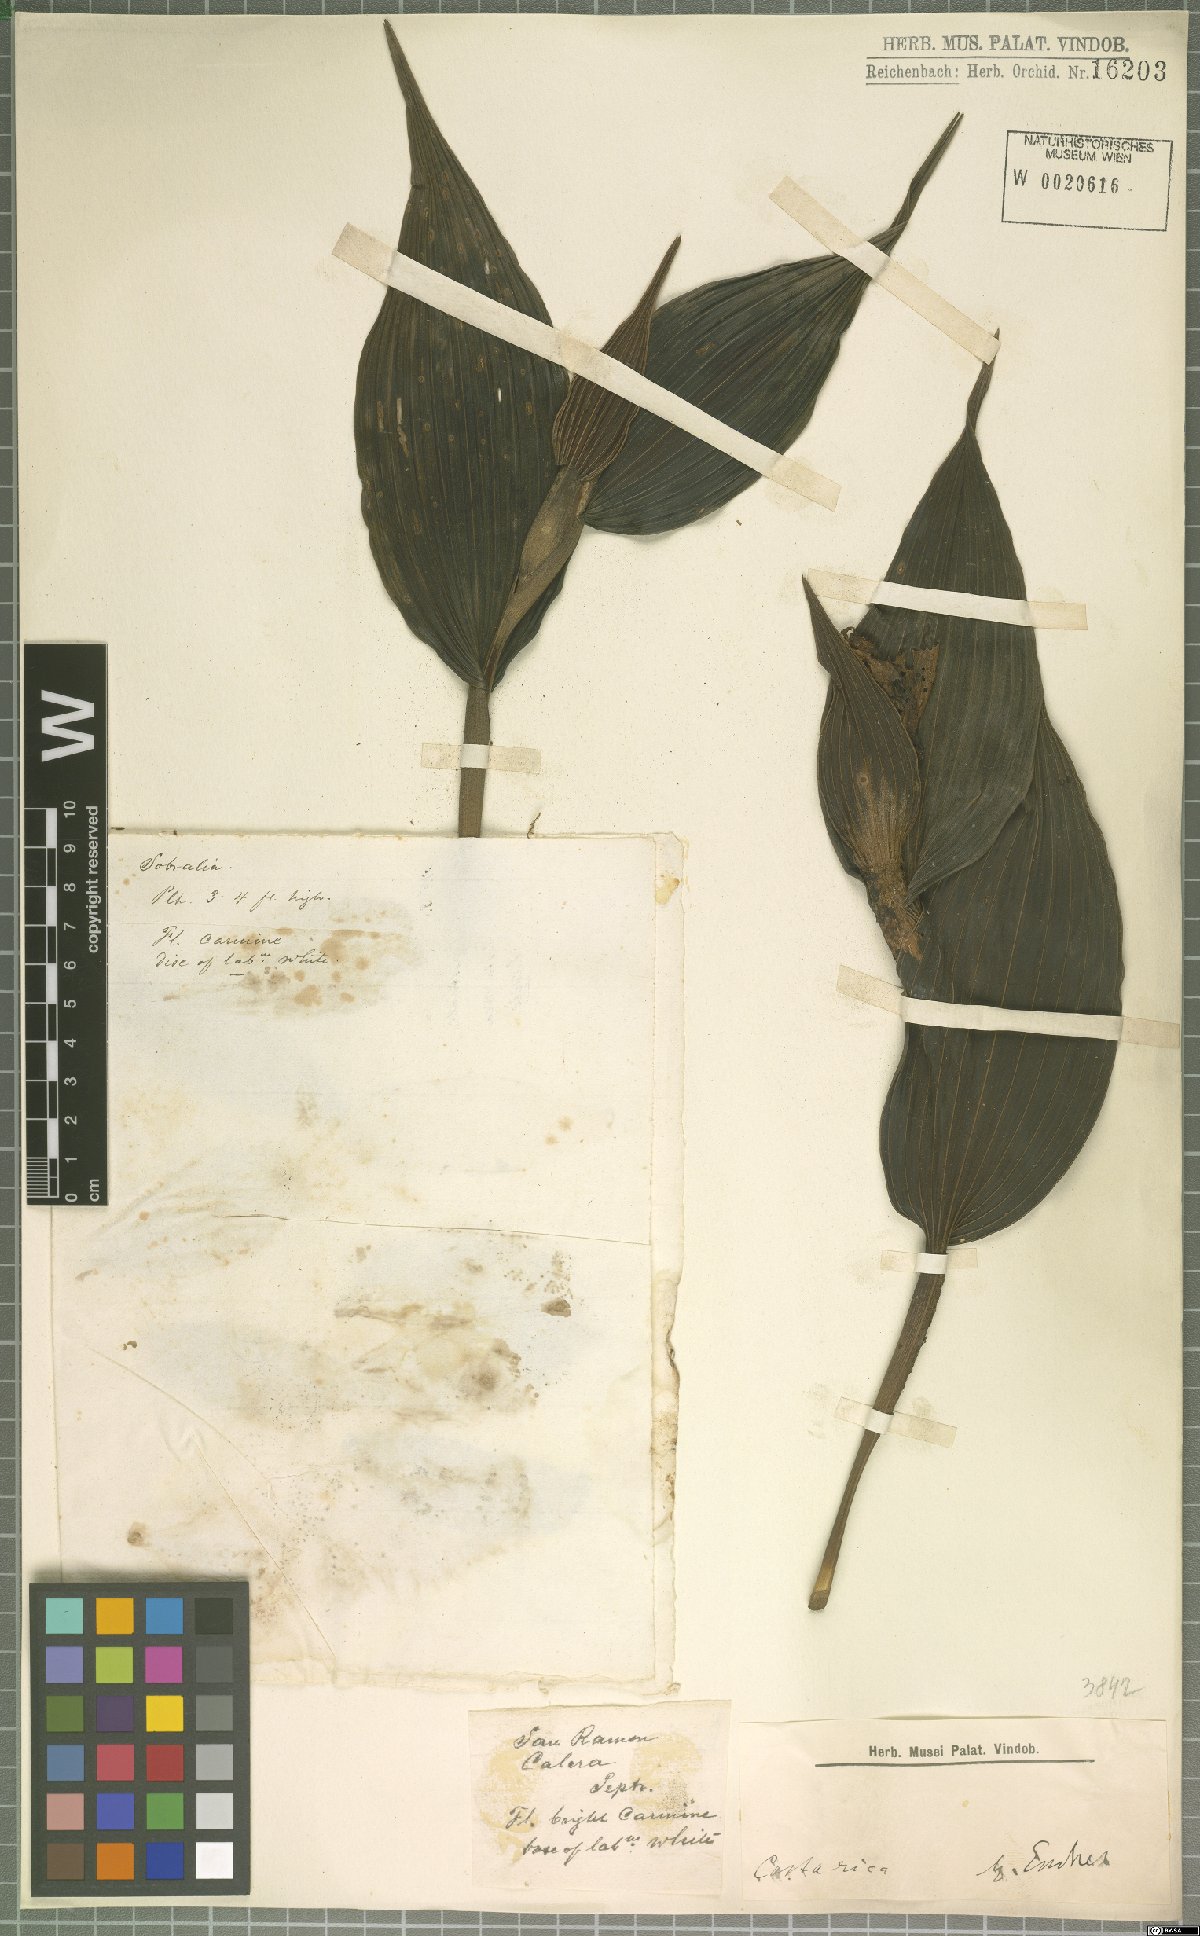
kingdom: Plantae
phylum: Tracheophyta
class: Liliopsida
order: Asparagales
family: Orchidaceae
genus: Sobralia
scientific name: Sobralia
